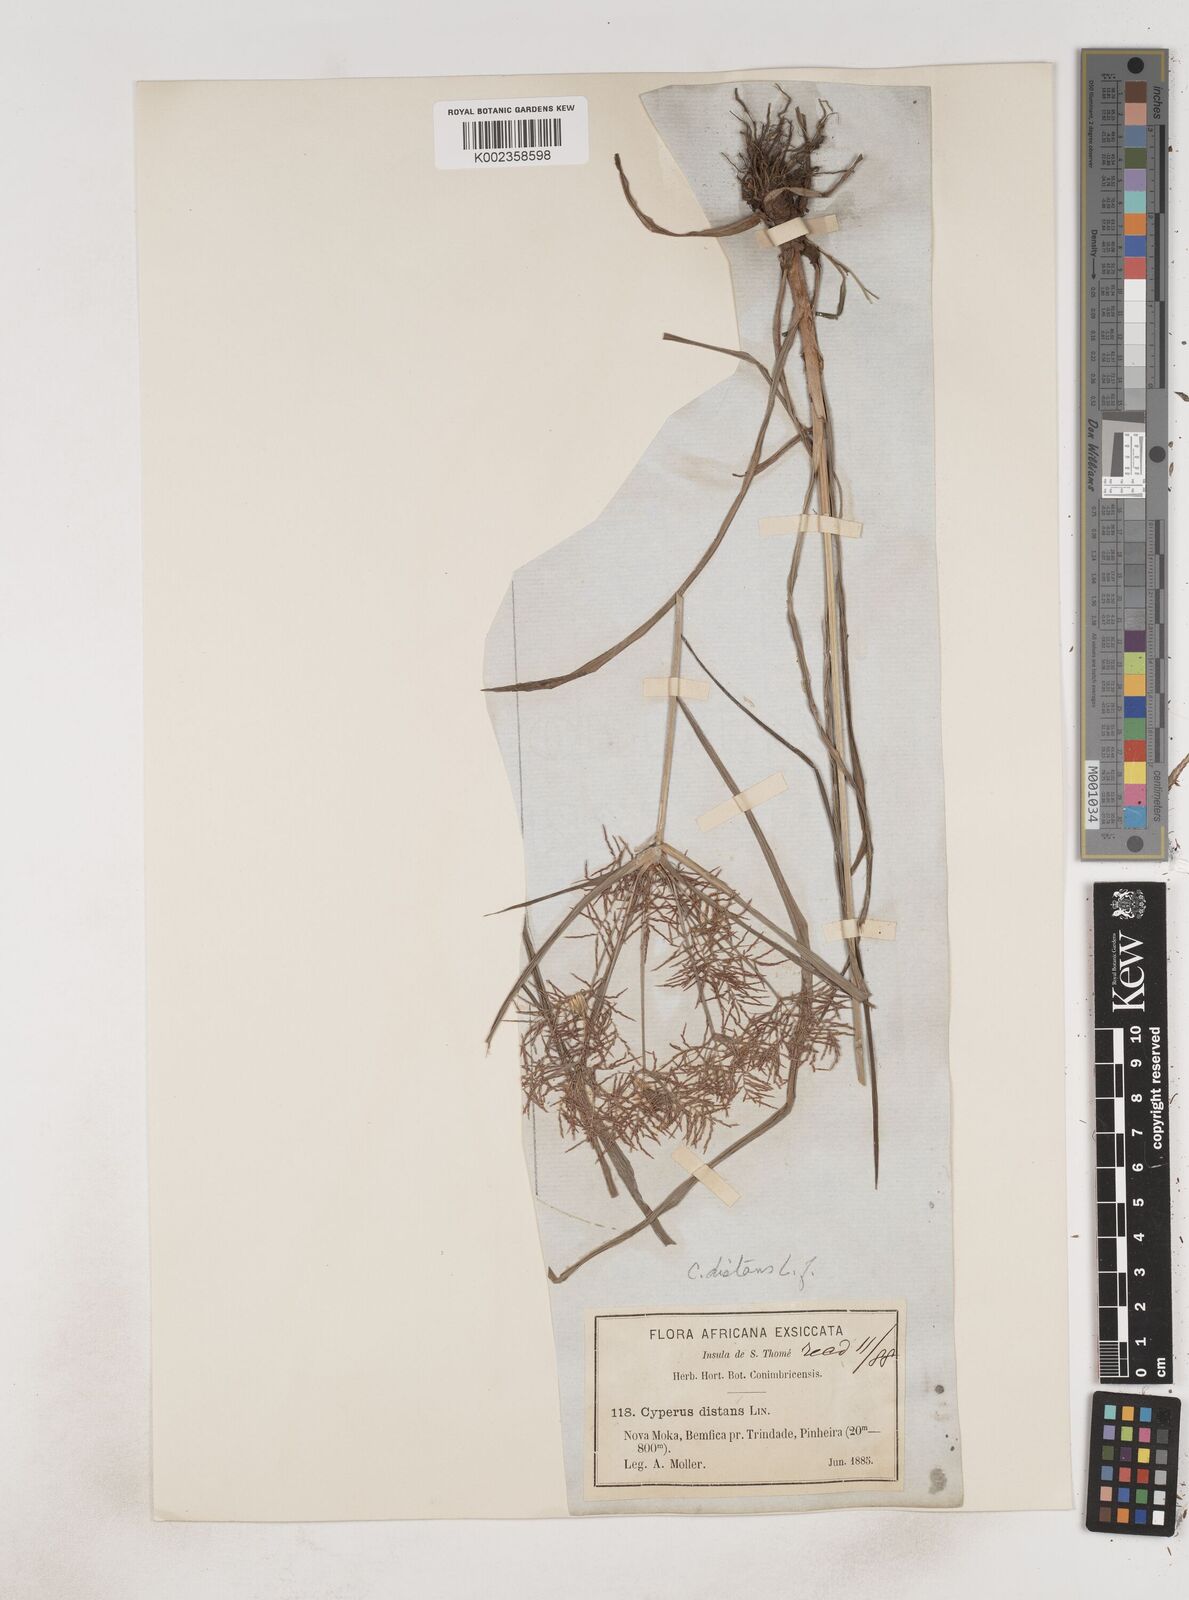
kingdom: Plantae
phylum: Tracheophyta
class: Liliopsida
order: Poales
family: Cyperaceae
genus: Cyperus
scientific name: Cyperus distans
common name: Slender cyperus
